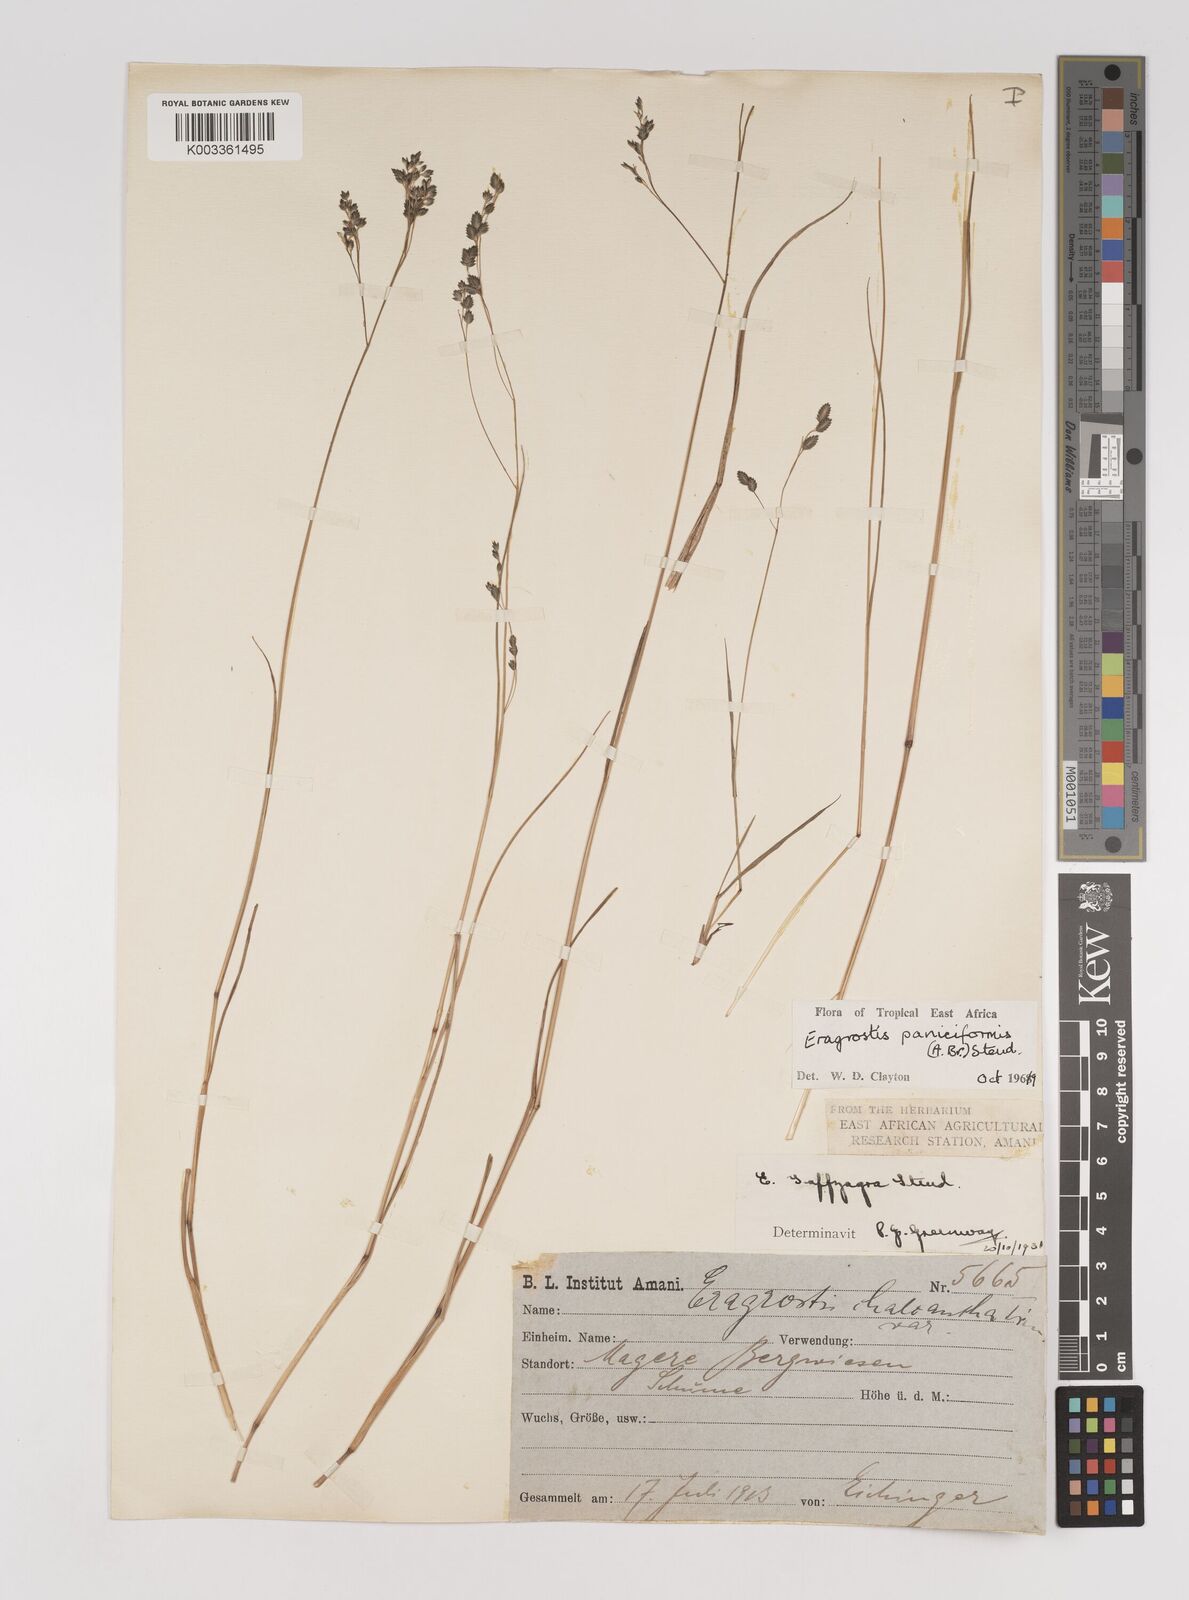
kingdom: Plantae
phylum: Tracheophyta
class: Liliopsida
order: Poales
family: Poaceae
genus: Eragrostis
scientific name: Eragrostis paniciformis
